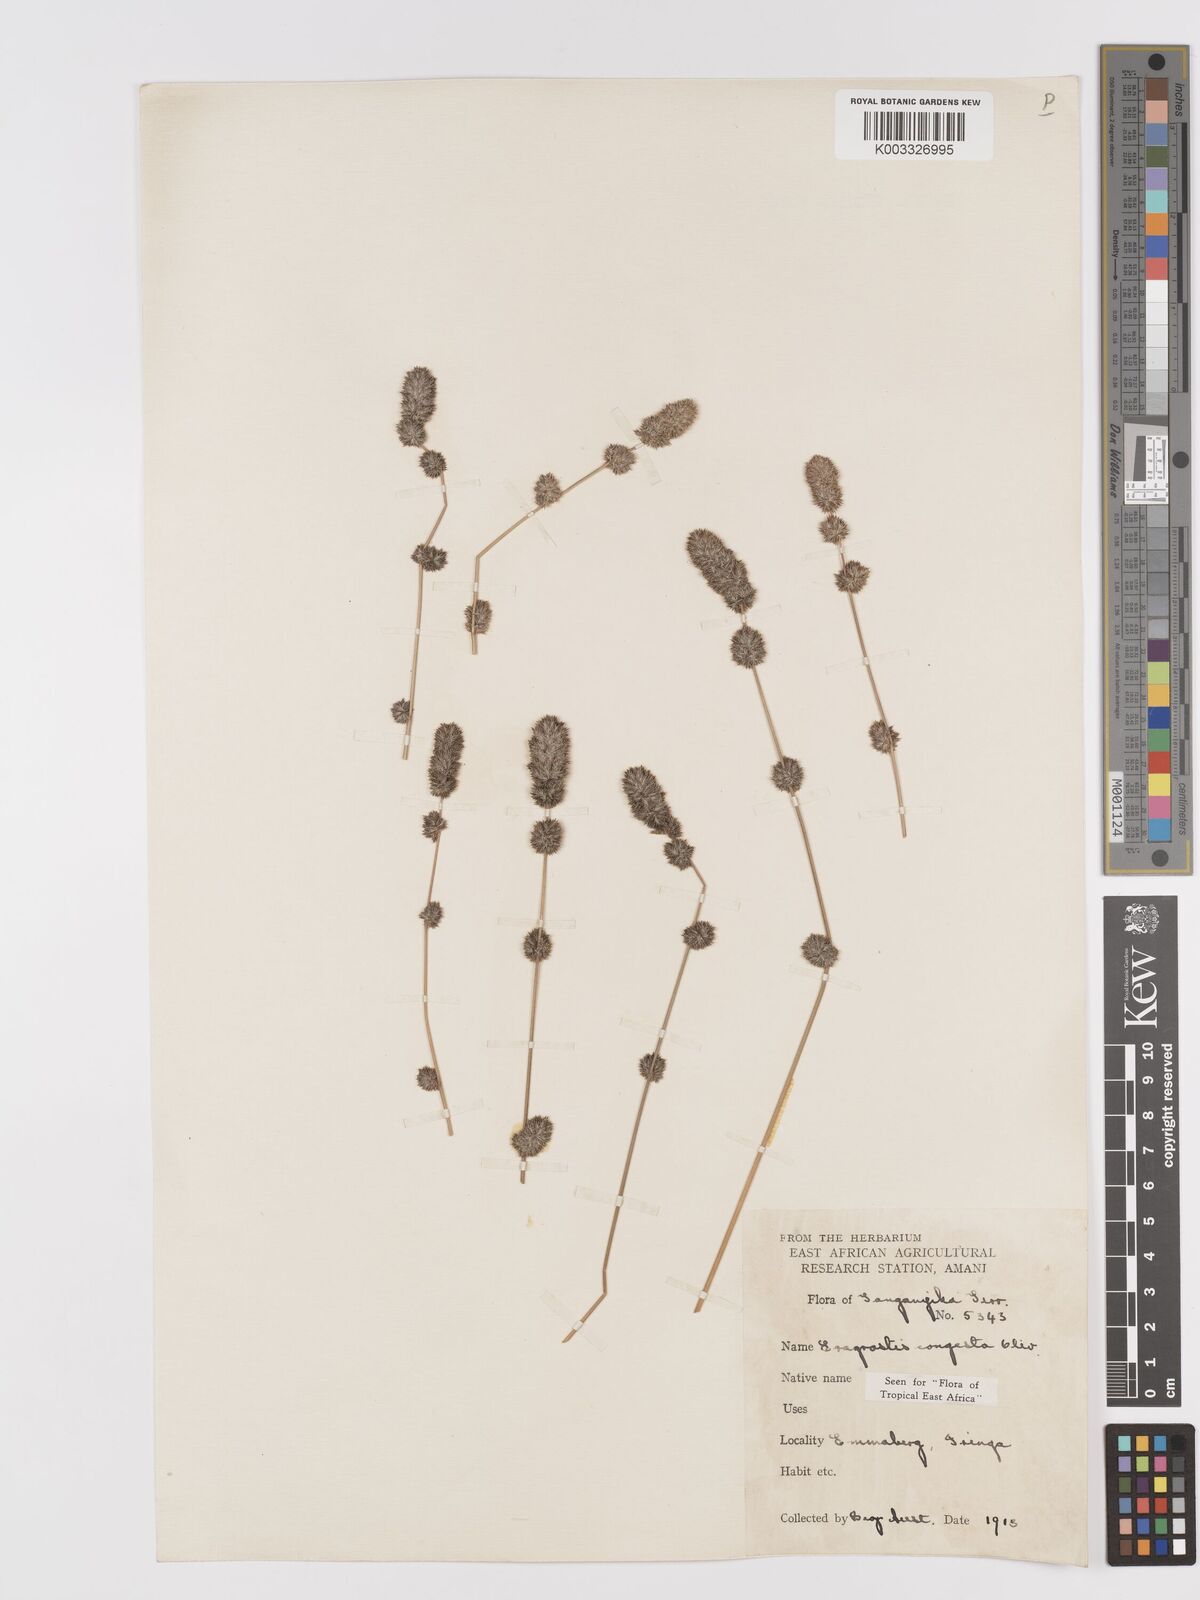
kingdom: Plantae
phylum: Tracheophyta
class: Liliopsida
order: Poales
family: Poaceae
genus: Eragrostis
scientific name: Eragrostis congesta
